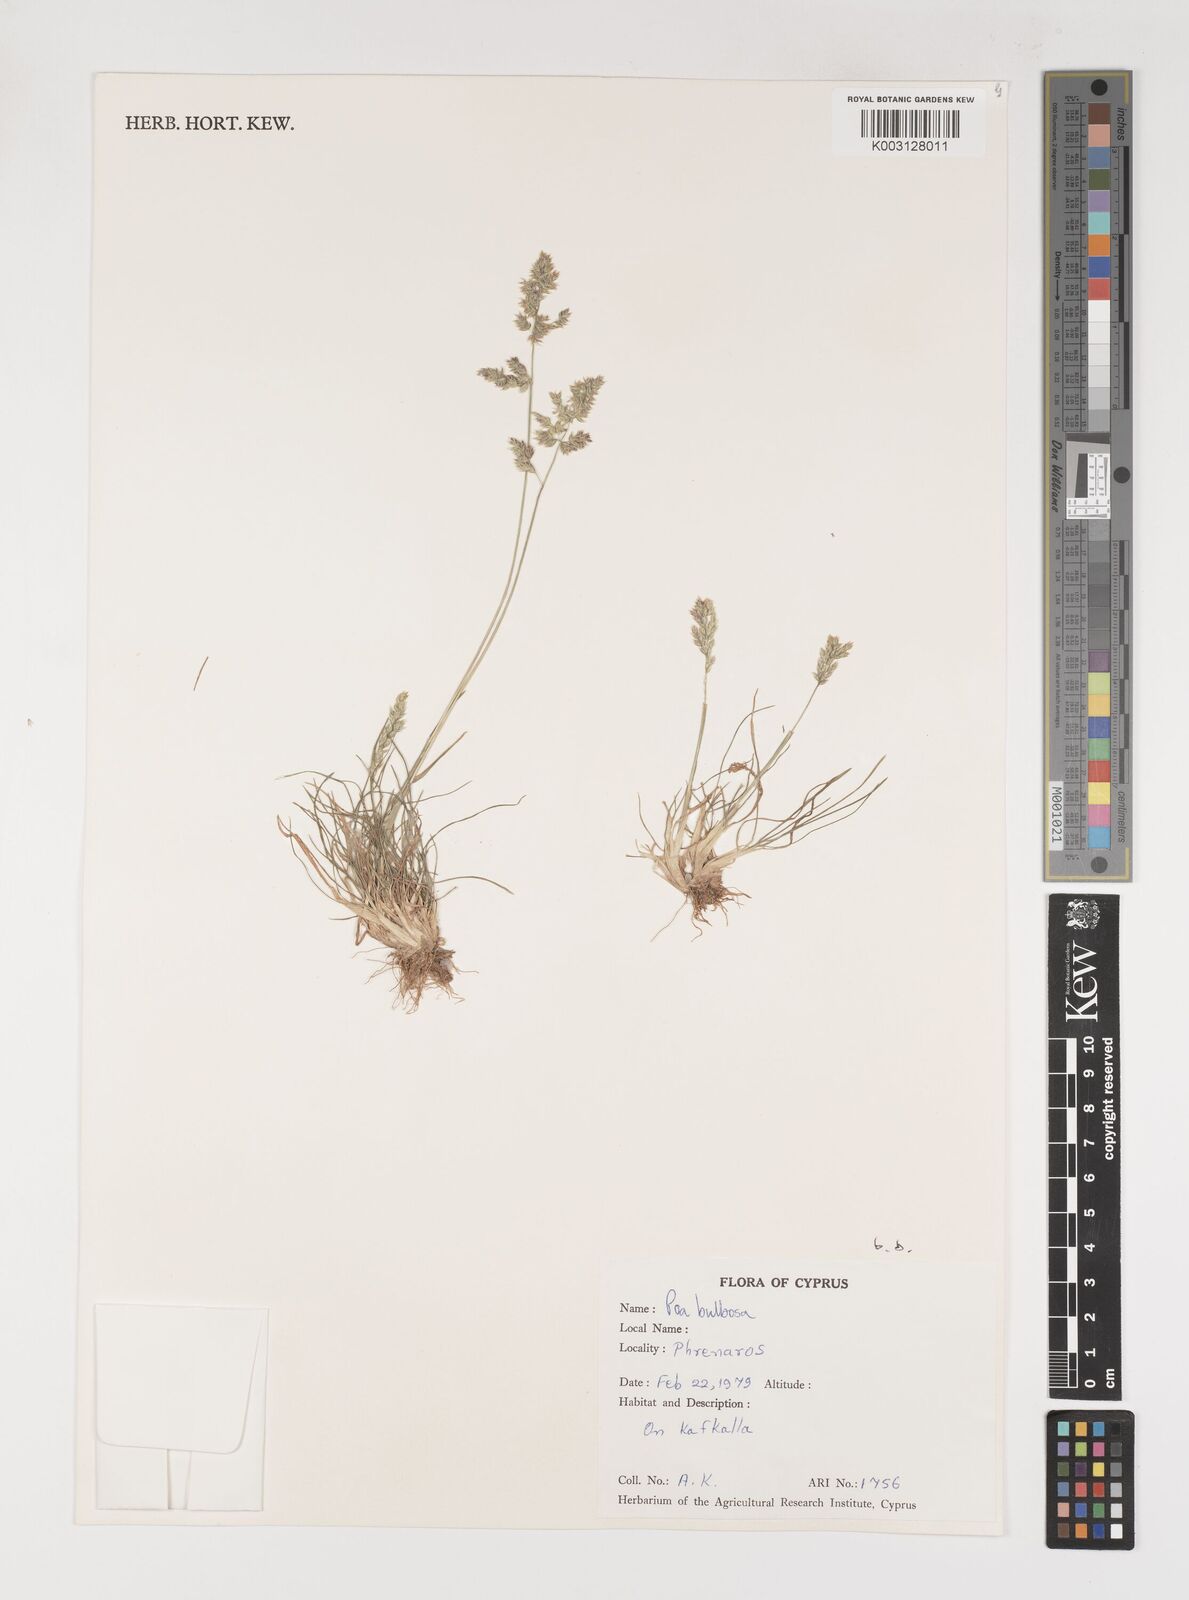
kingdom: Plantae
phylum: Tracheophyta
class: Liliopsida
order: Poales
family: Poaceae
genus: Poa
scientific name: Poa bulbosa
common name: Bulbous bluegrass
